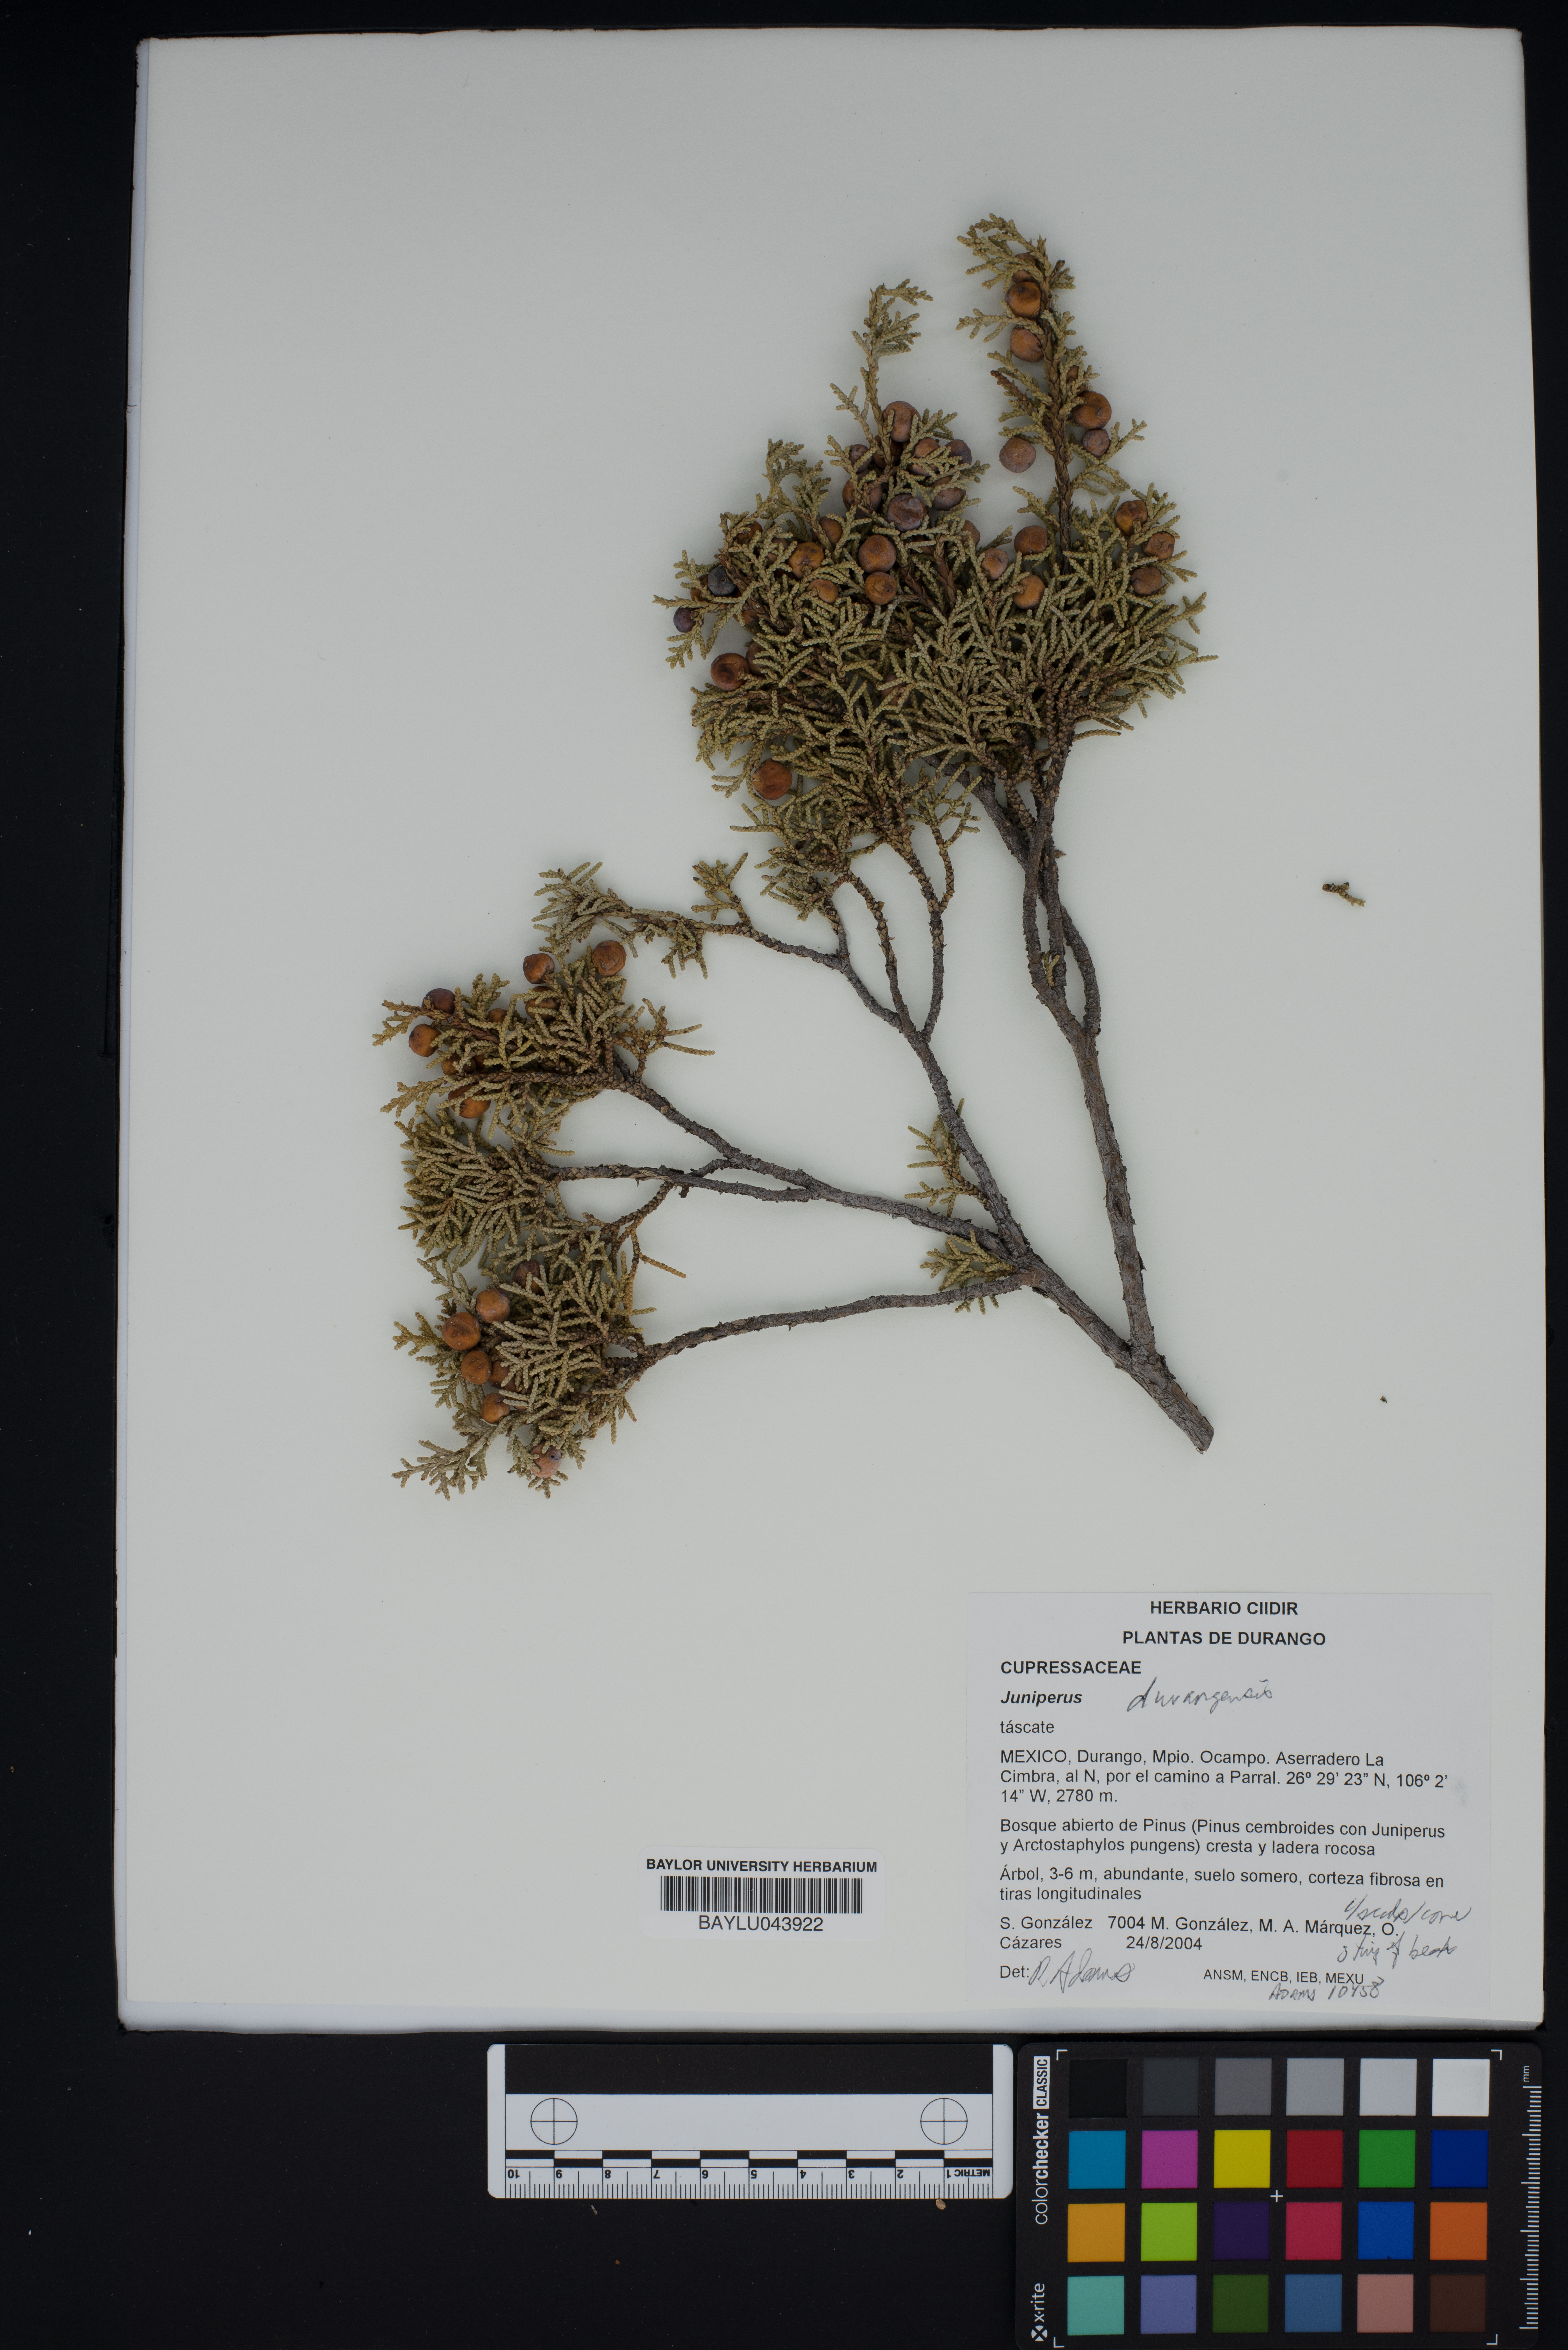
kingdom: Plantae
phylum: Tracheophyta
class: Pinopsida
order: Pinales
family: Cupressaceae
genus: Juniperus
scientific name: Juniperus durangensis
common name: Durango juniper
